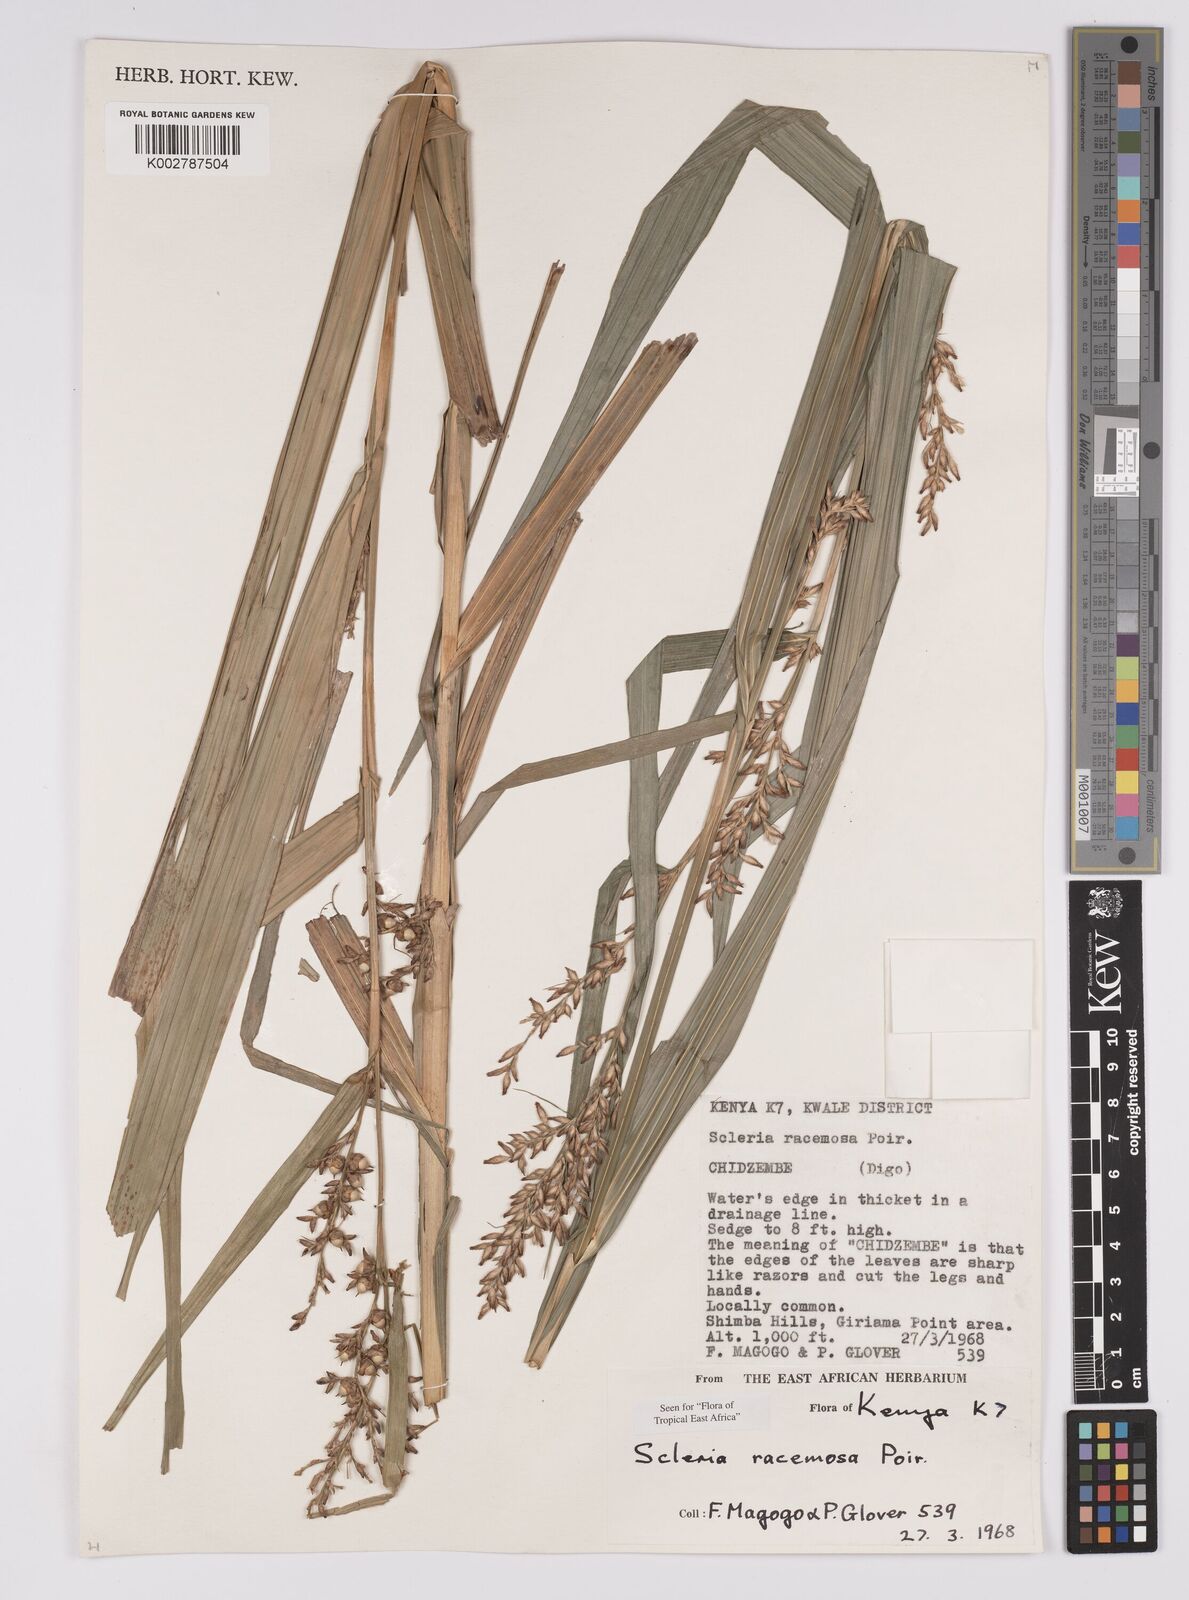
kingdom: Plantae
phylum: Tracheophyta
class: Liliopsida
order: Poales
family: Cyperaceae
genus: Scleria
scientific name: Scleria racemosa
